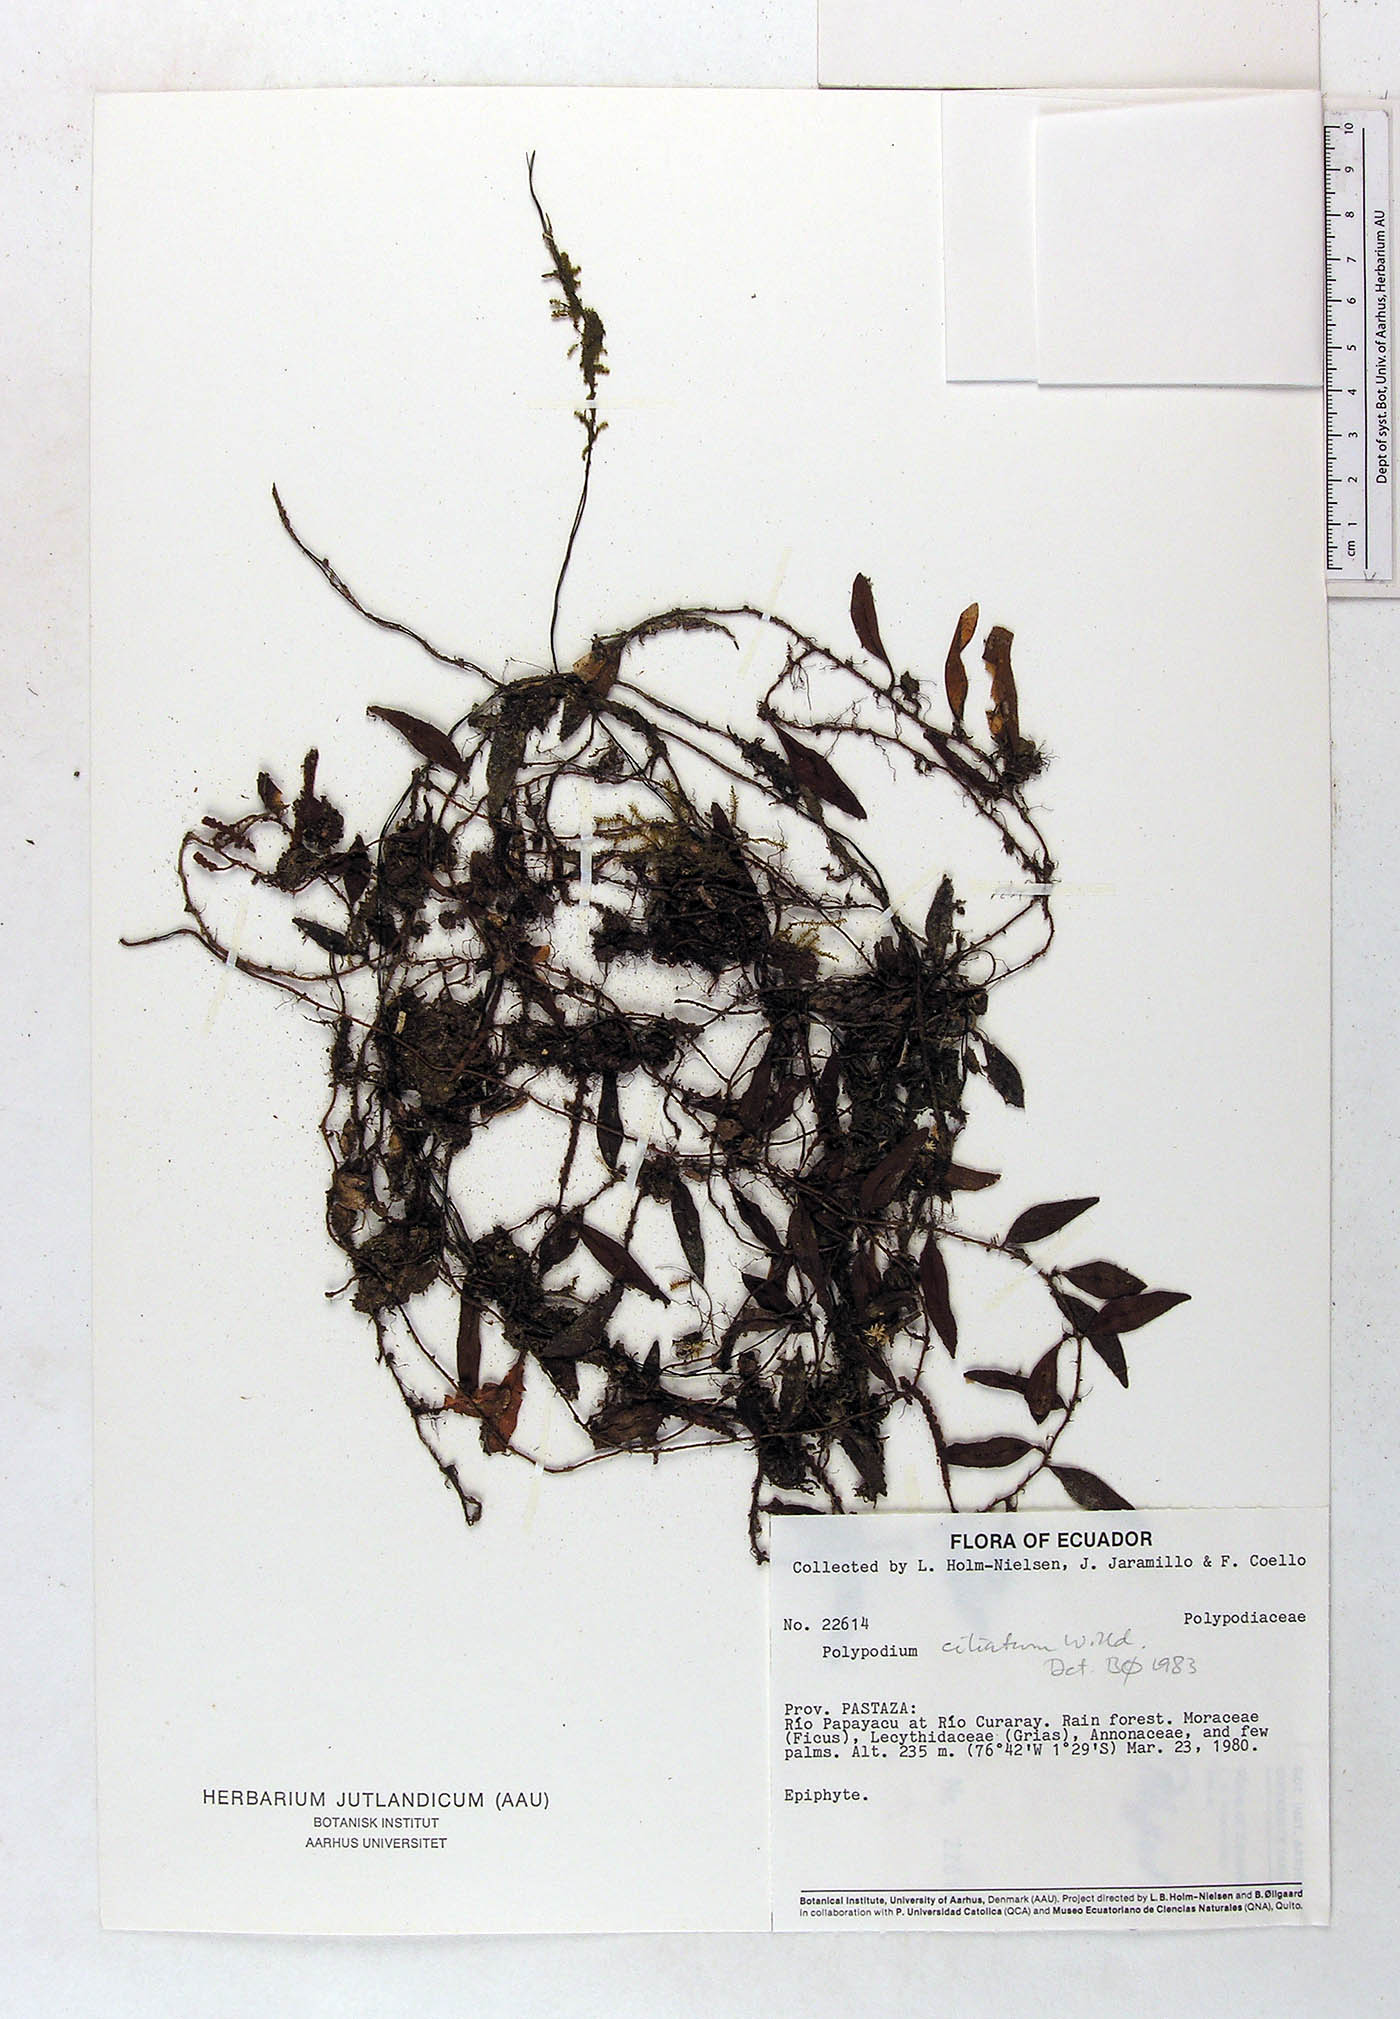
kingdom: Plantae
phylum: Tracheophyta
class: Polypodiopsida
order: Polypodiales
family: Polypodiaceae
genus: Microgramma
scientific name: Microgramma piloselloides
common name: Hairy snakefern
